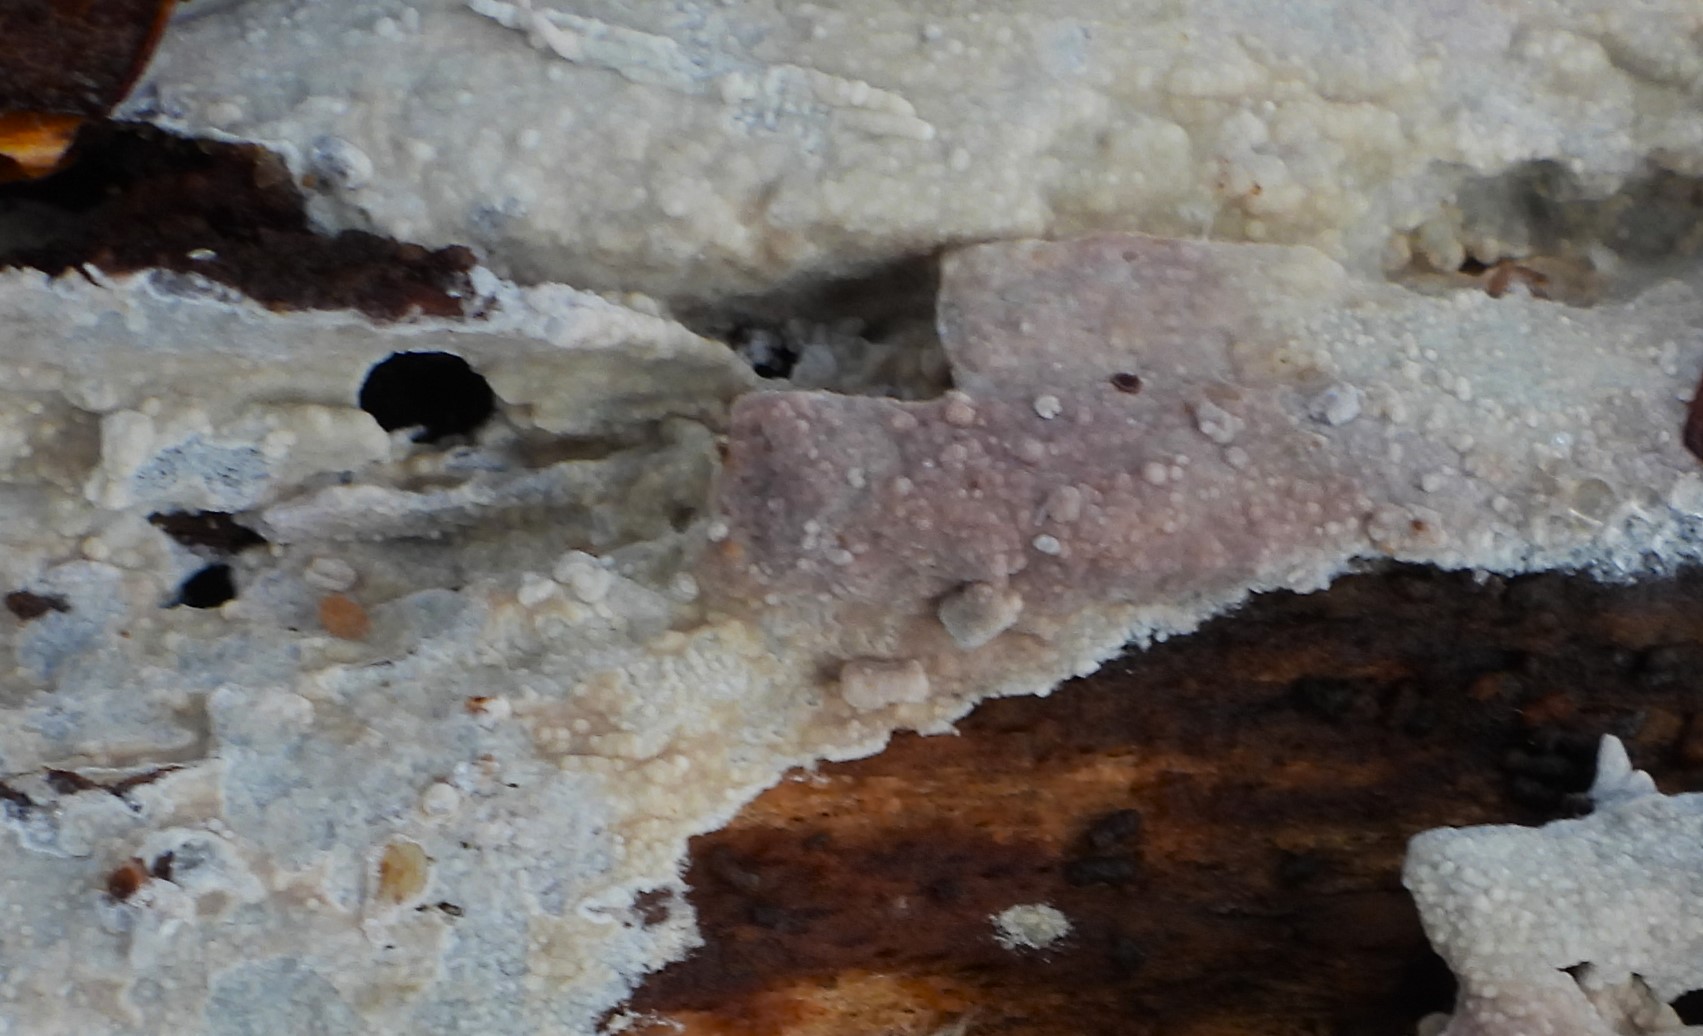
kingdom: Fungi
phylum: Basidiomycota
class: Agaricomycetes
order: Russulales
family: Peniophoraceae
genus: Gloiothele
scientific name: Gloiothele lactescens
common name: bitter olieskind
